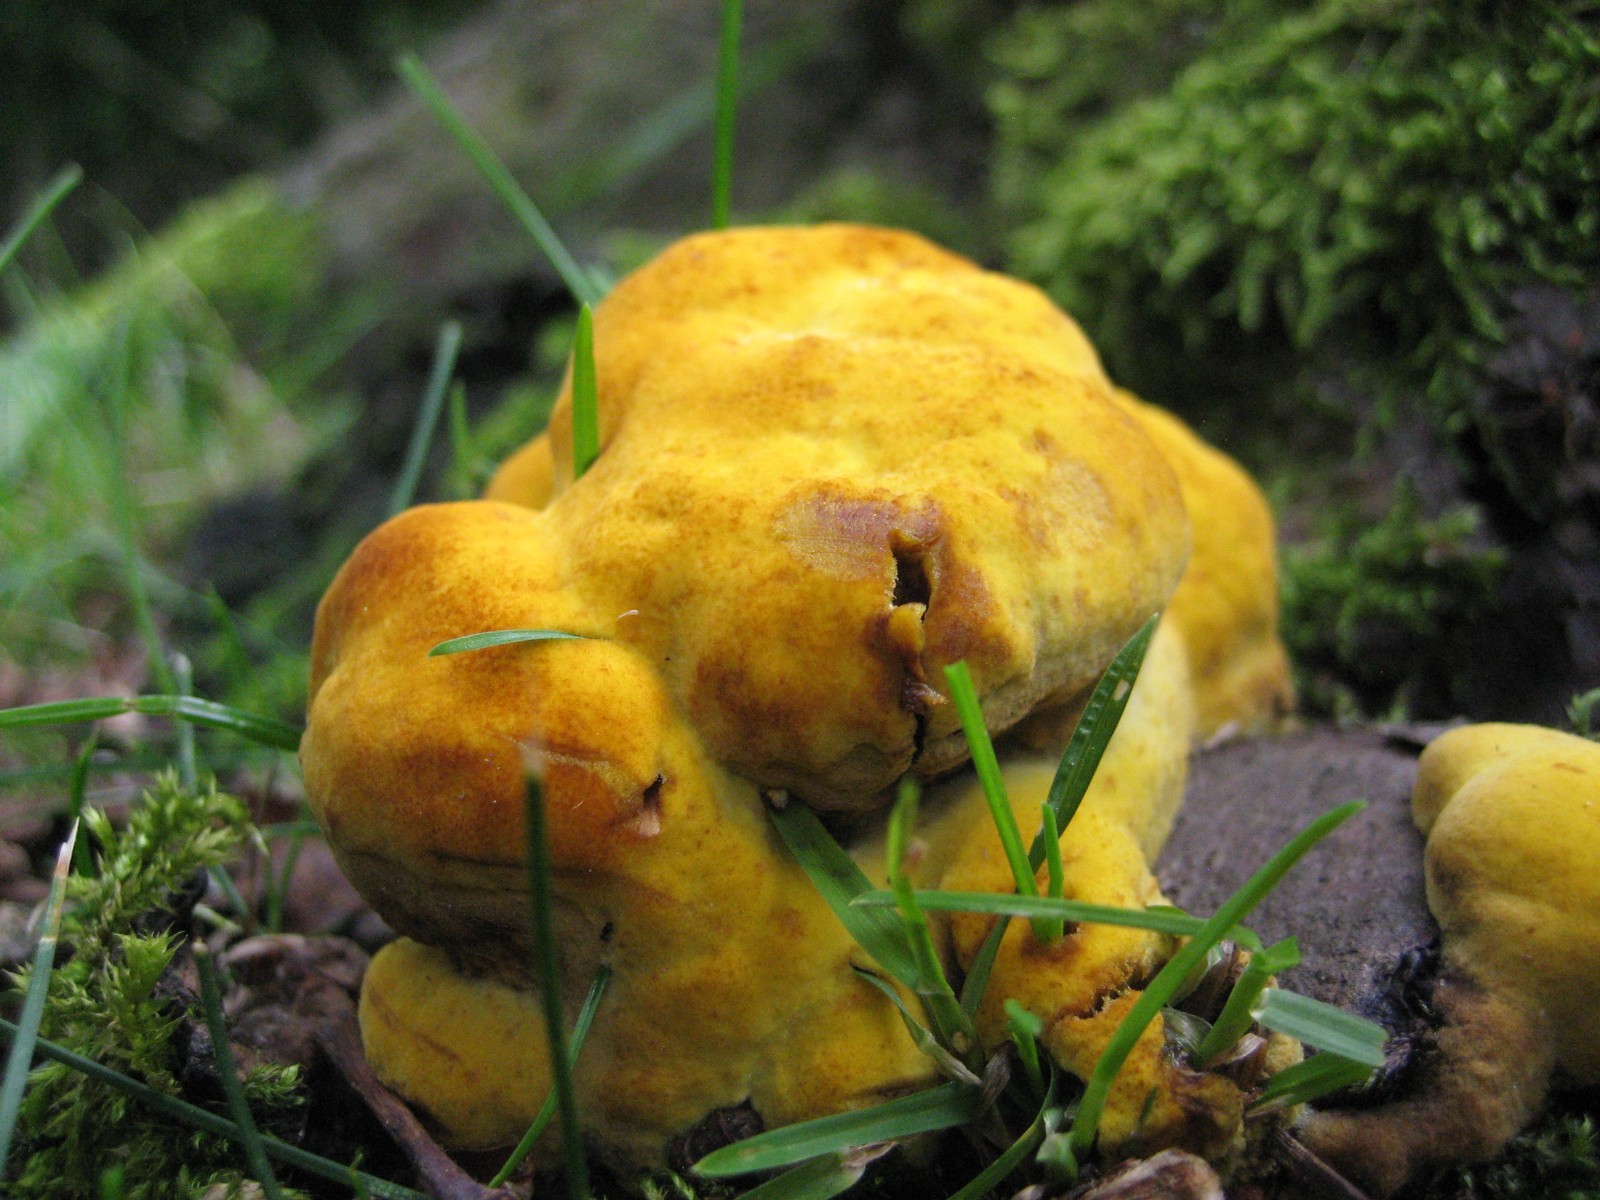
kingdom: Fungi
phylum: Basidiomycota
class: Agaricomycetes
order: Polyporales
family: Laetiporaceae
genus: Phaeolus
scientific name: Phaeolus schweinitzii
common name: brunporesvamp
